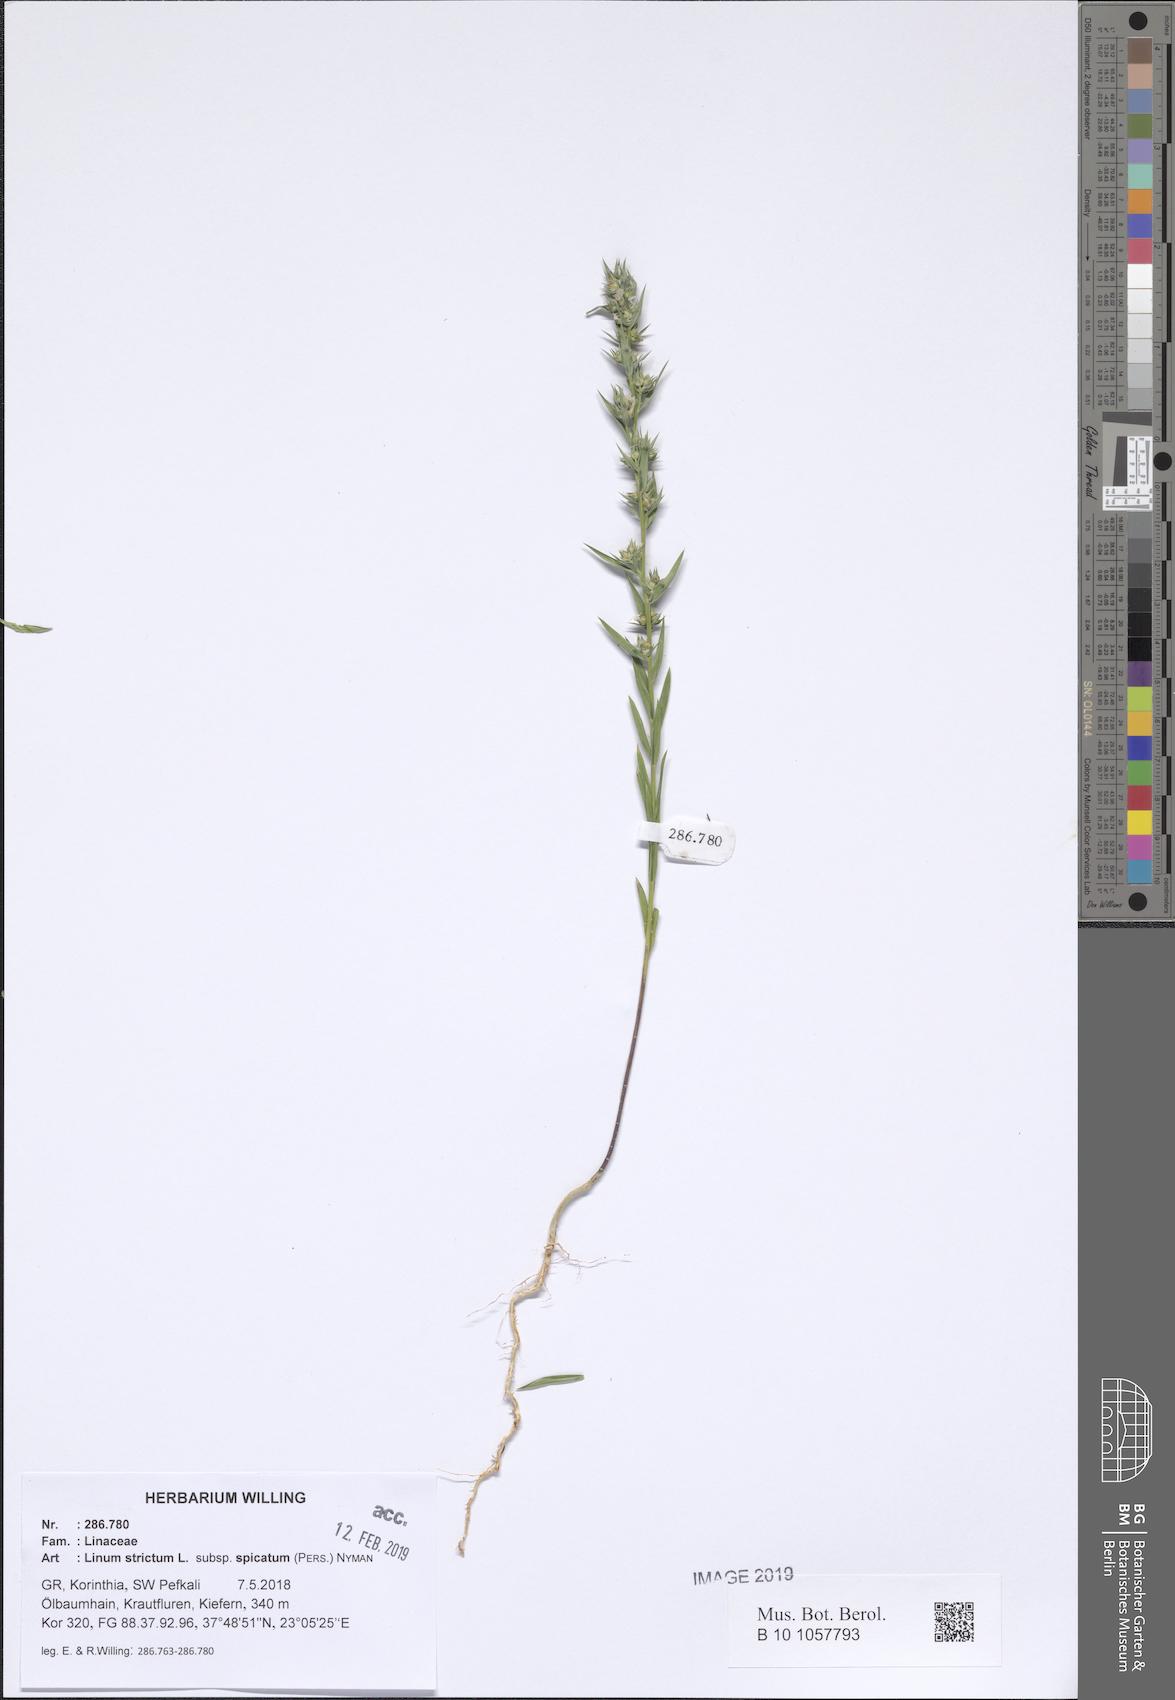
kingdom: Plantae
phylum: Tracheophyta
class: Magnoliopsida
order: Malpighiales
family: Linaceae
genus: Linum
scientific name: Linum strictum
